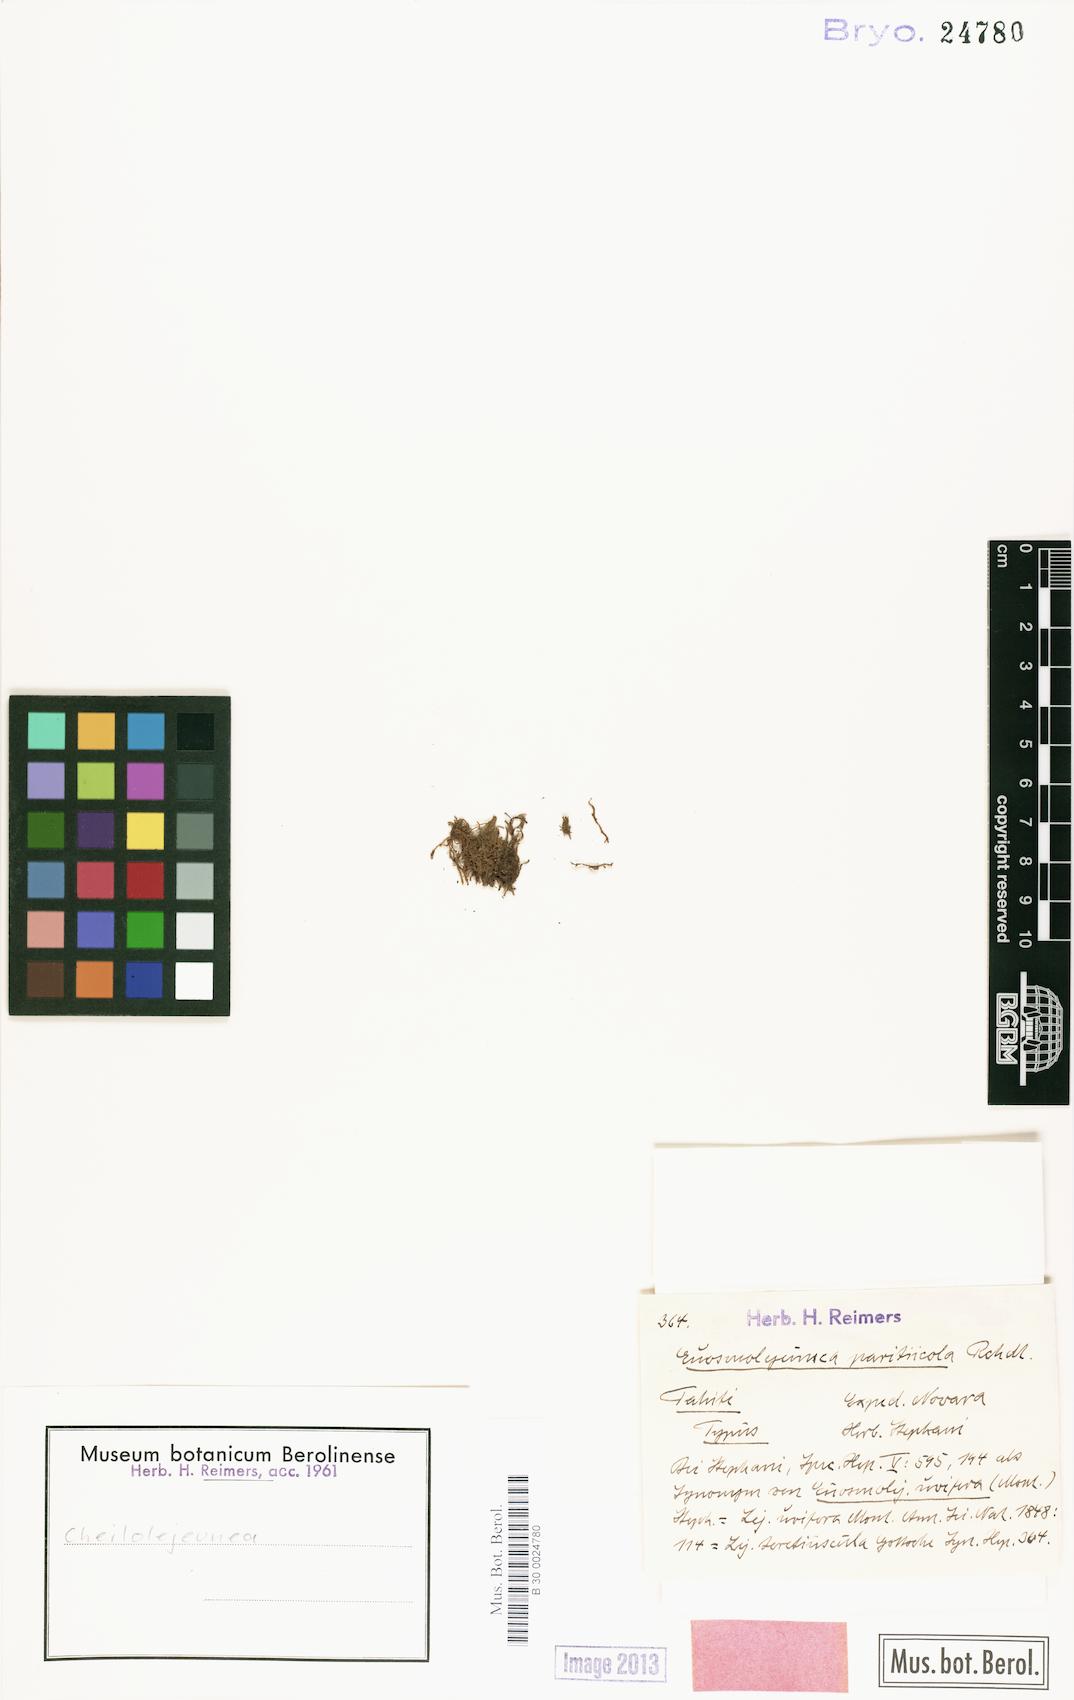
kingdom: Plantae
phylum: Marchantiophyta
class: Jungermanniopsida
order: Porellales
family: Lejeuneaceae
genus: Cheilolejeunea
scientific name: Cheilolejeunea
